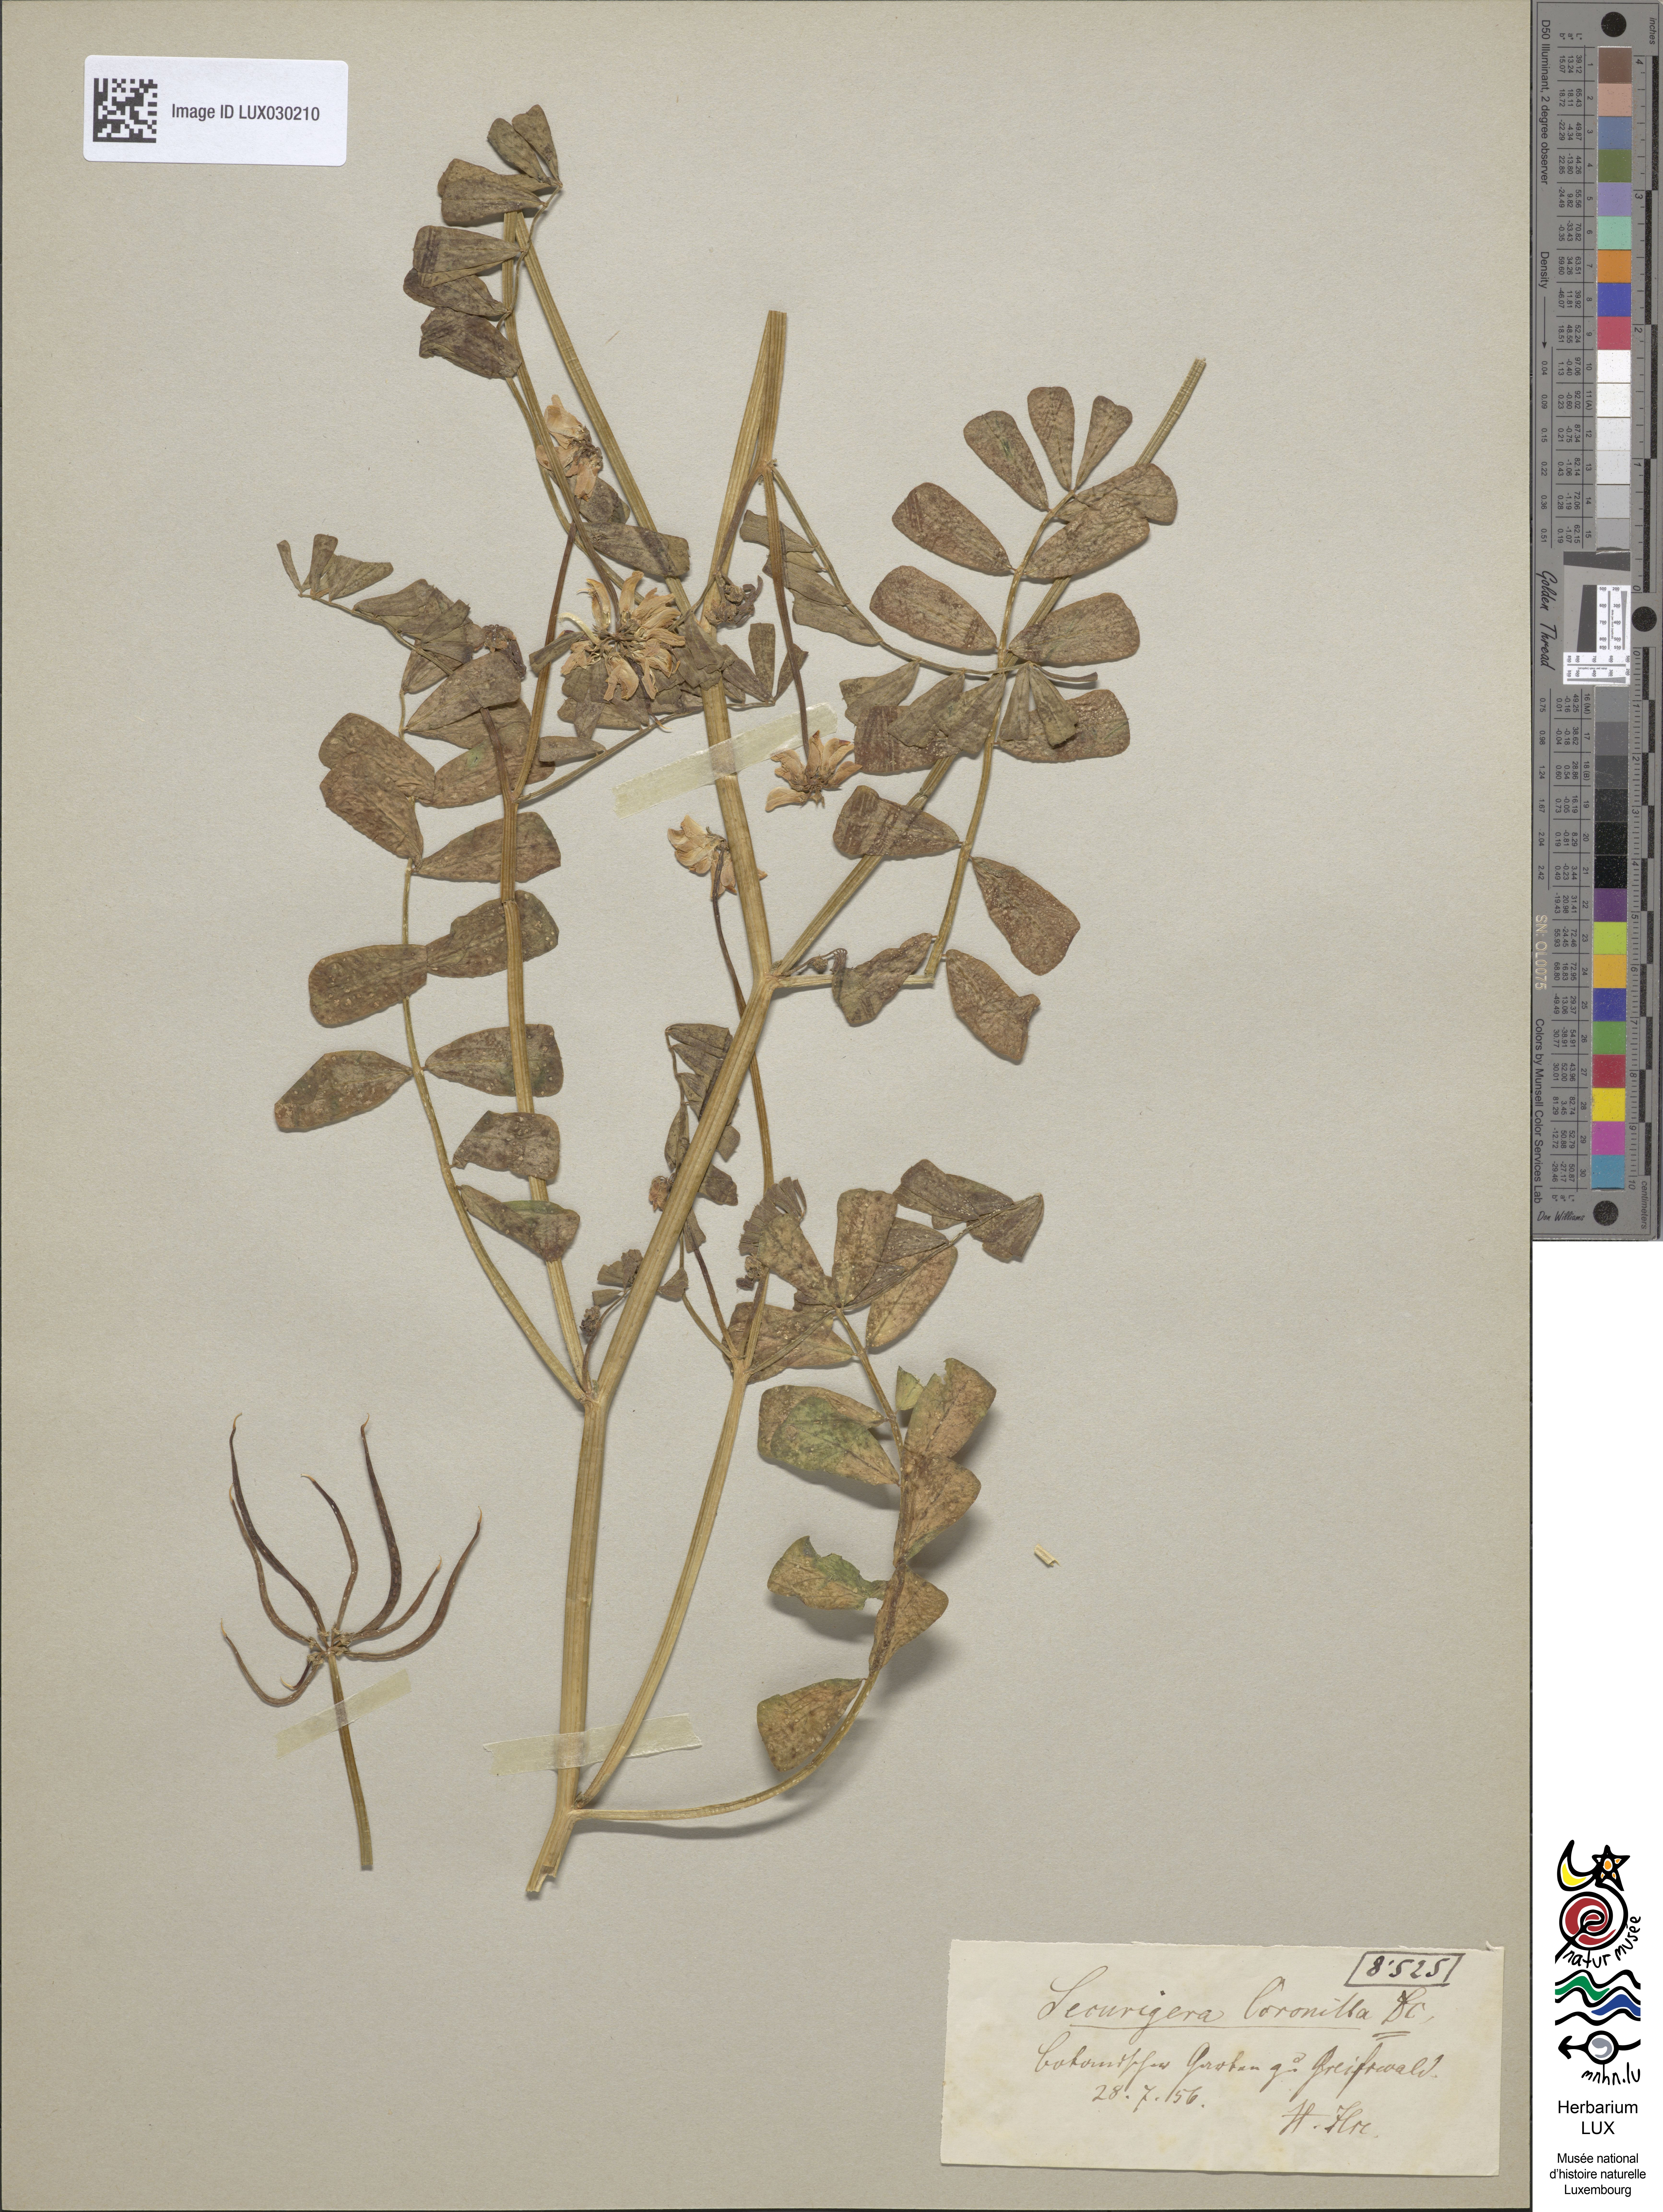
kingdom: Plantae
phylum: Tracheophyta
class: Magnoliopsida
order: Fabales
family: Fabaceae
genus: Coronilla
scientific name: Coronilla securidaca
